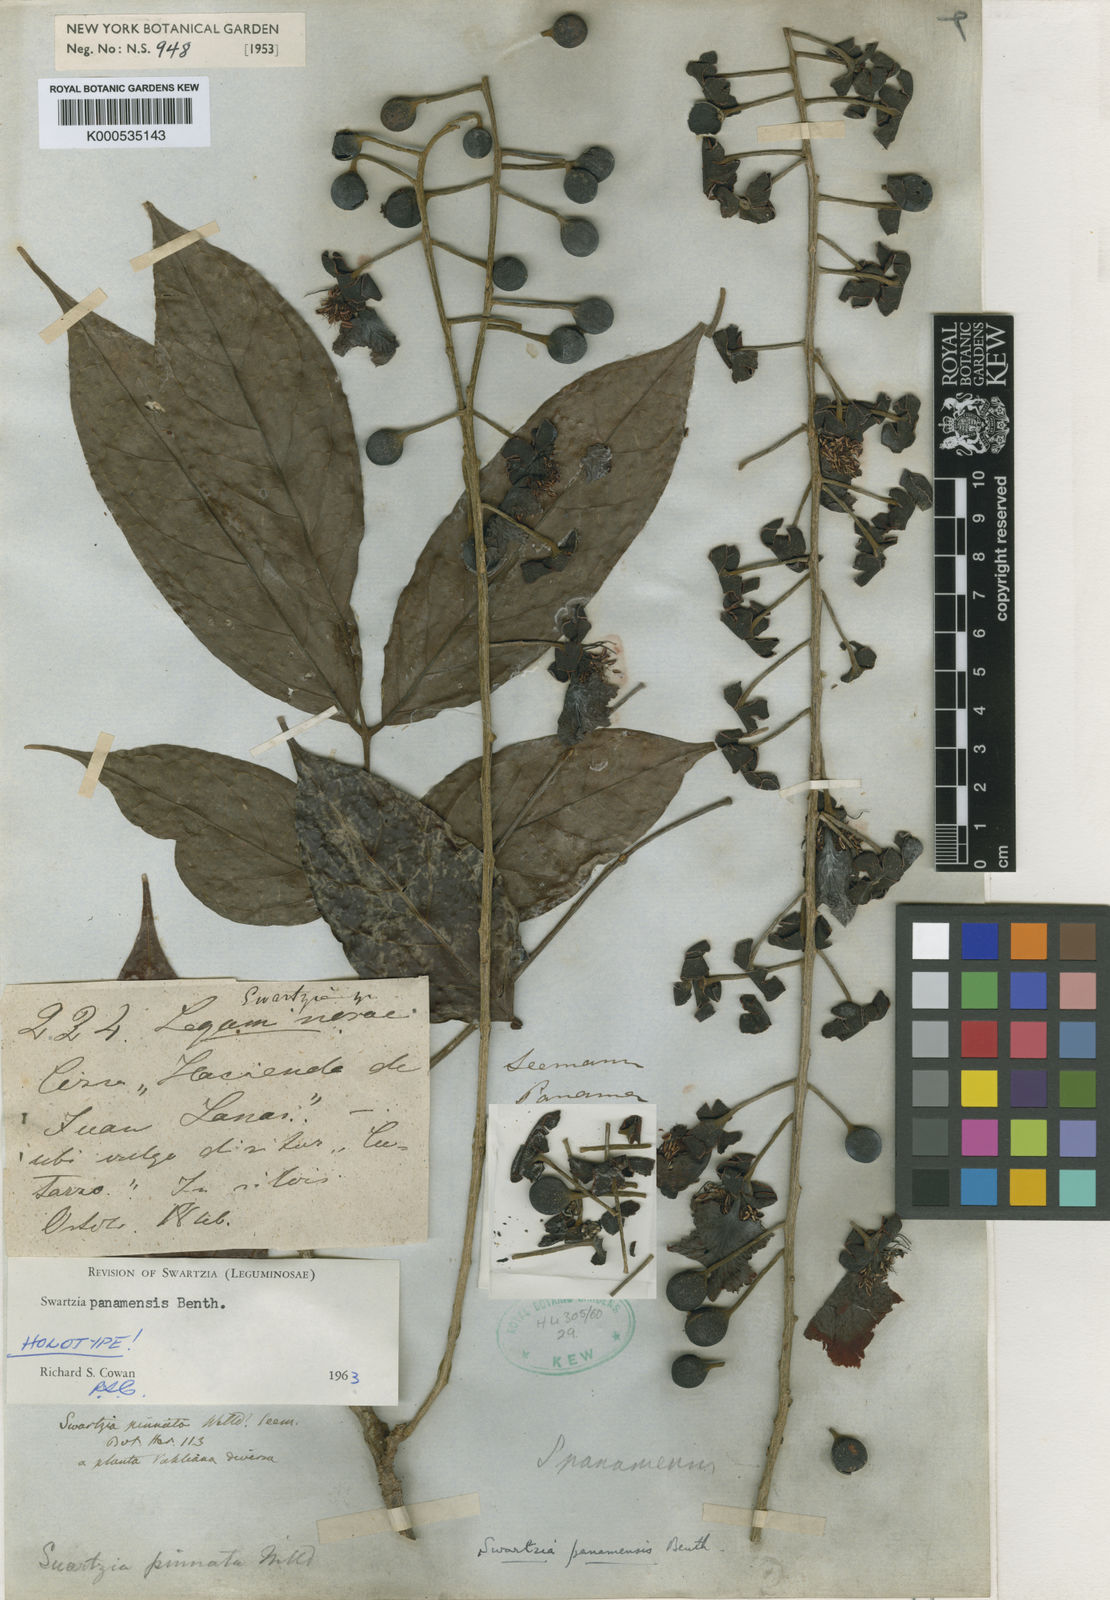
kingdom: Plantae
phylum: Tracheophyta
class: Magnoliopsida
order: Fabales
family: Fabaceae
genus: Fairchildia
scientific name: Fairchildia panamensis
